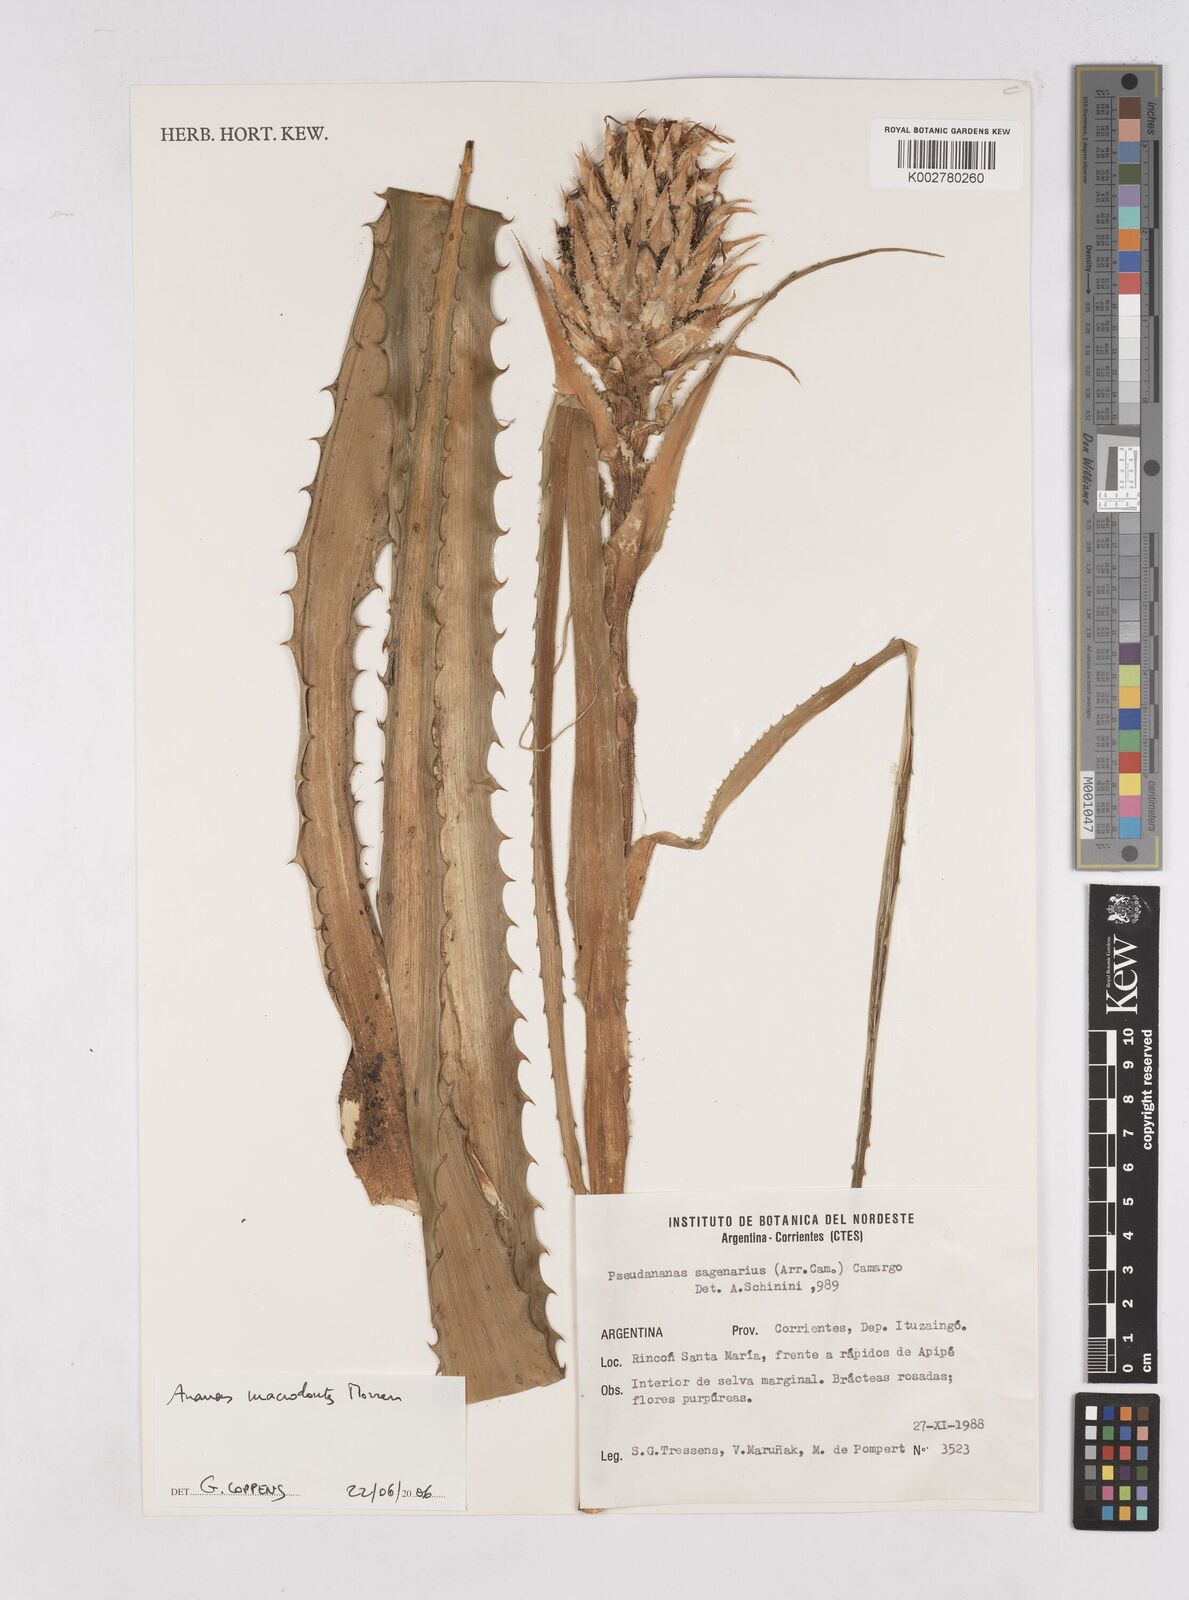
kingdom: Plantae
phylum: Tracheophyta
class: Liliopsida
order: Poales
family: Bromeliaceae
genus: Ananas
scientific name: Ananas macrodontes
